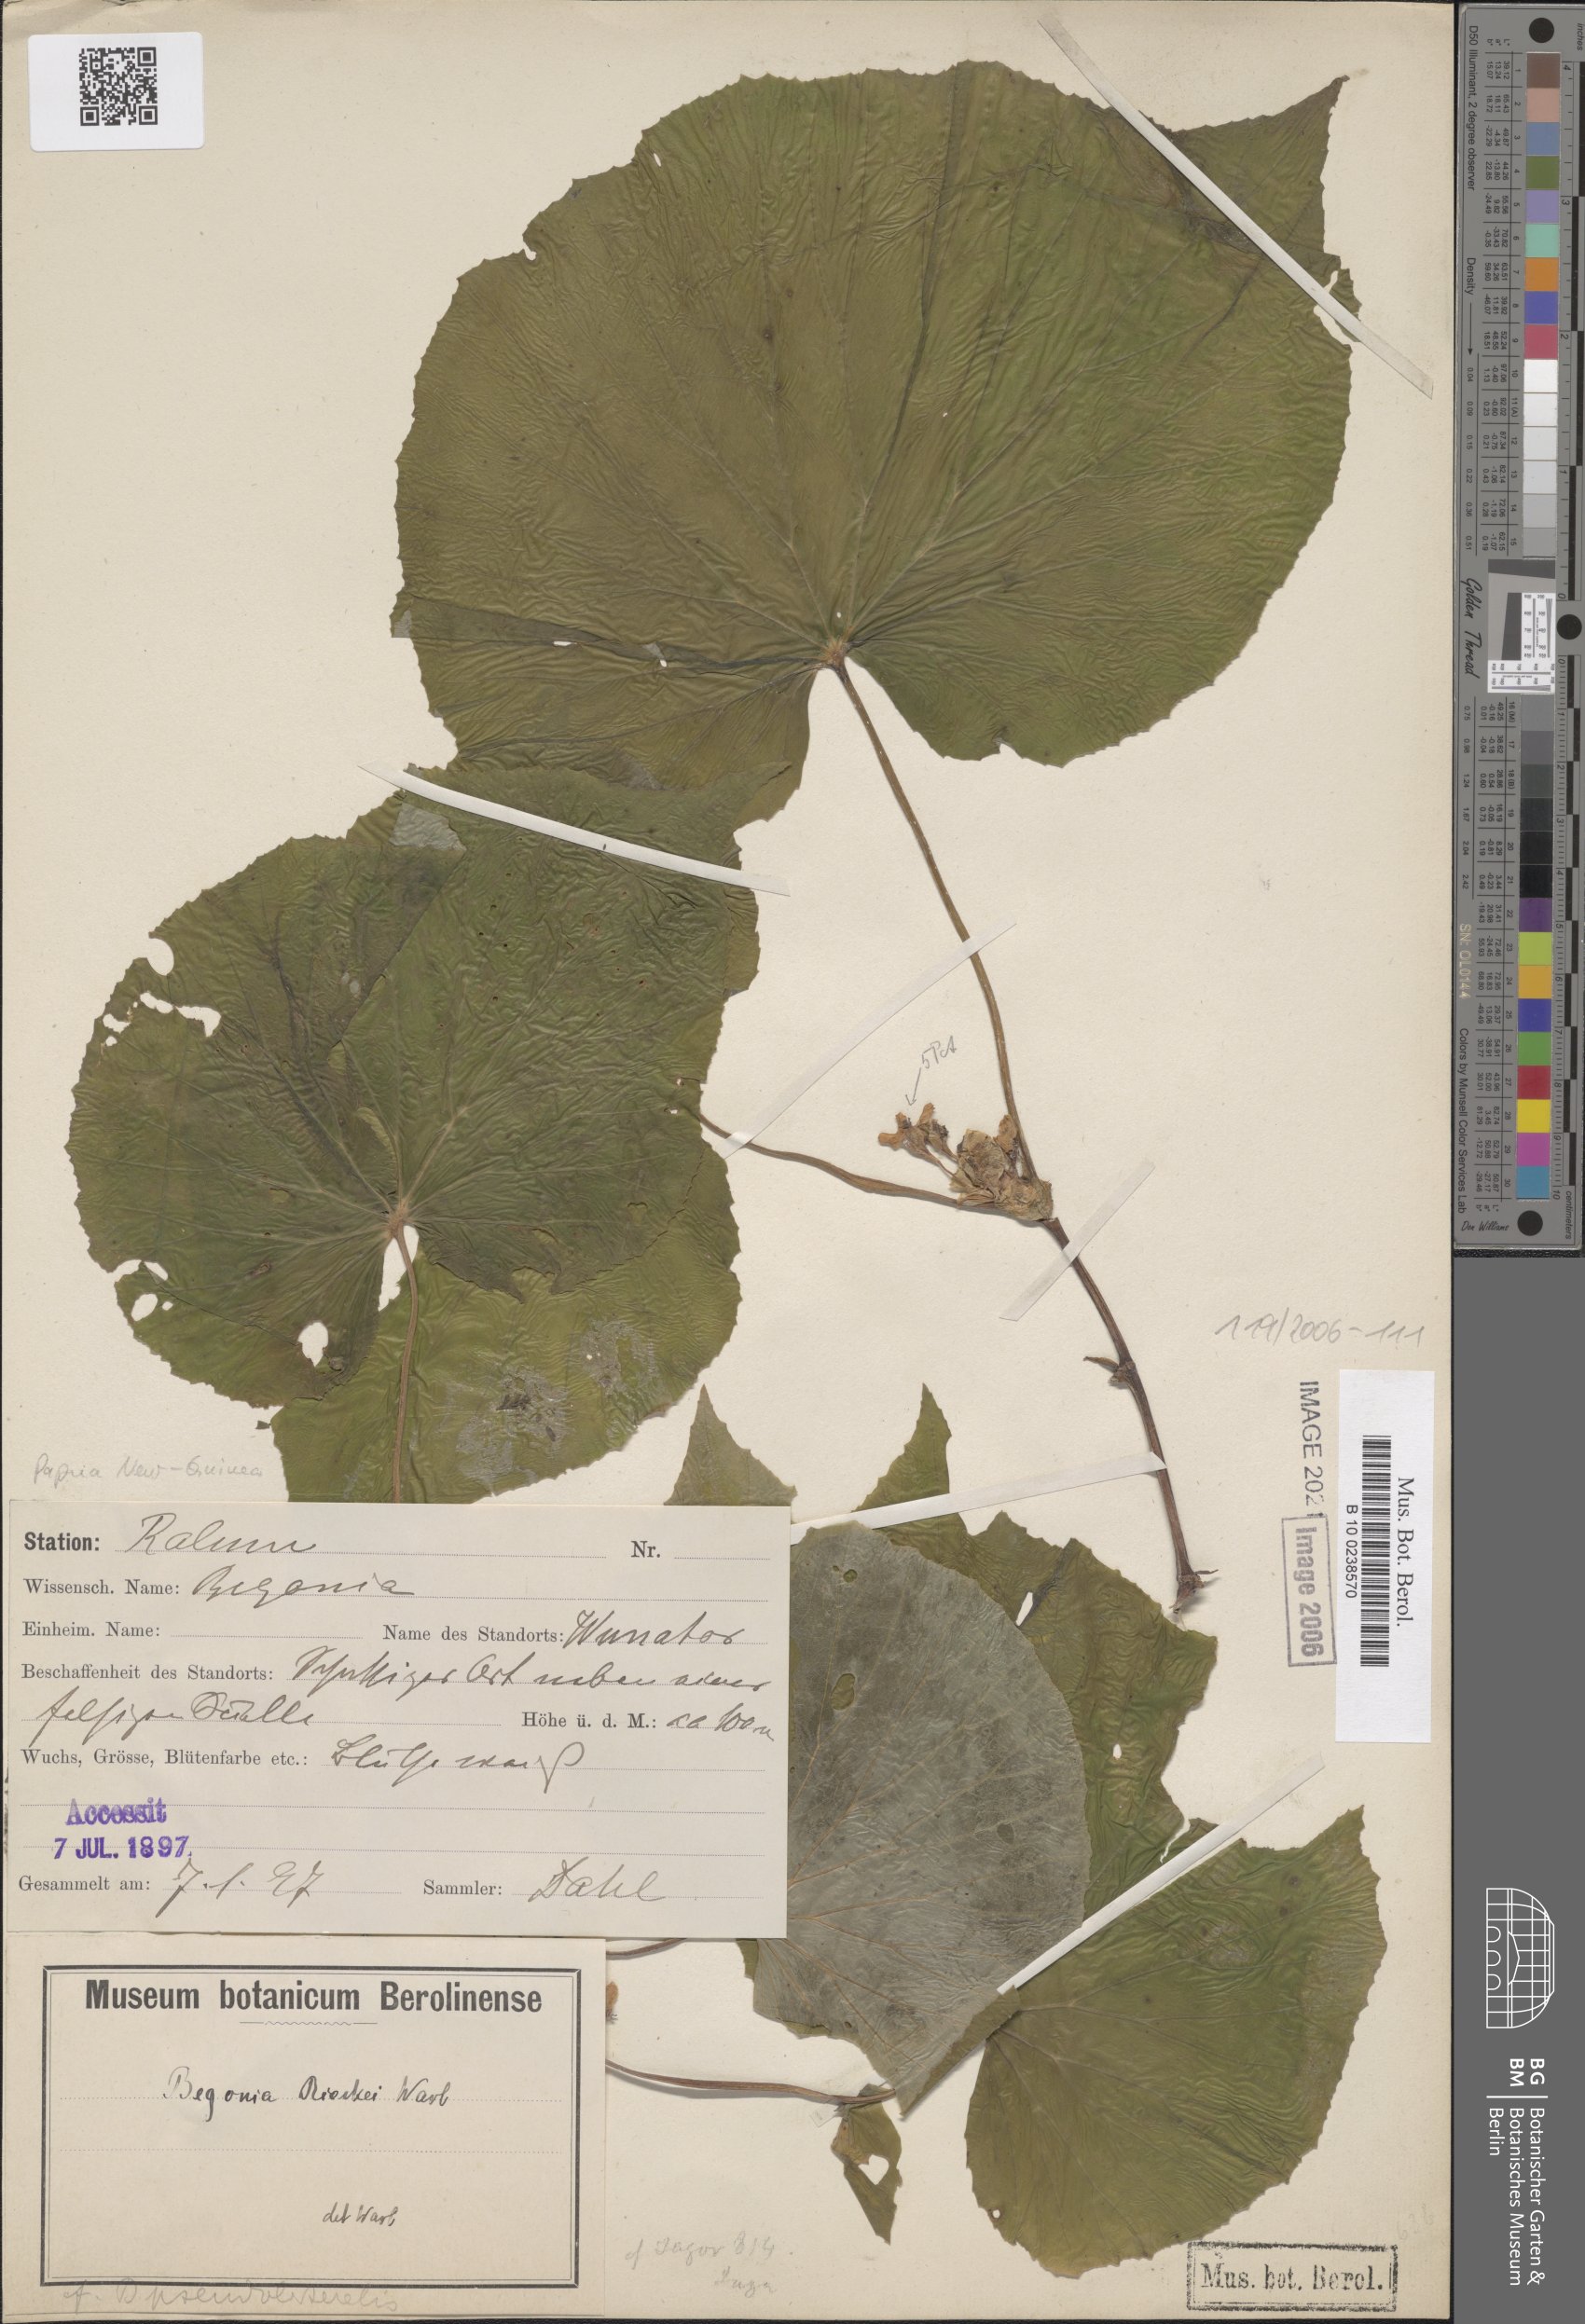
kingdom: Plantae
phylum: Tracheophyta
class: Magnoliopsida
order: Cucurbitales
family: Begoniaceae
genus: Begonia
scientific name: Begonia rieckei
